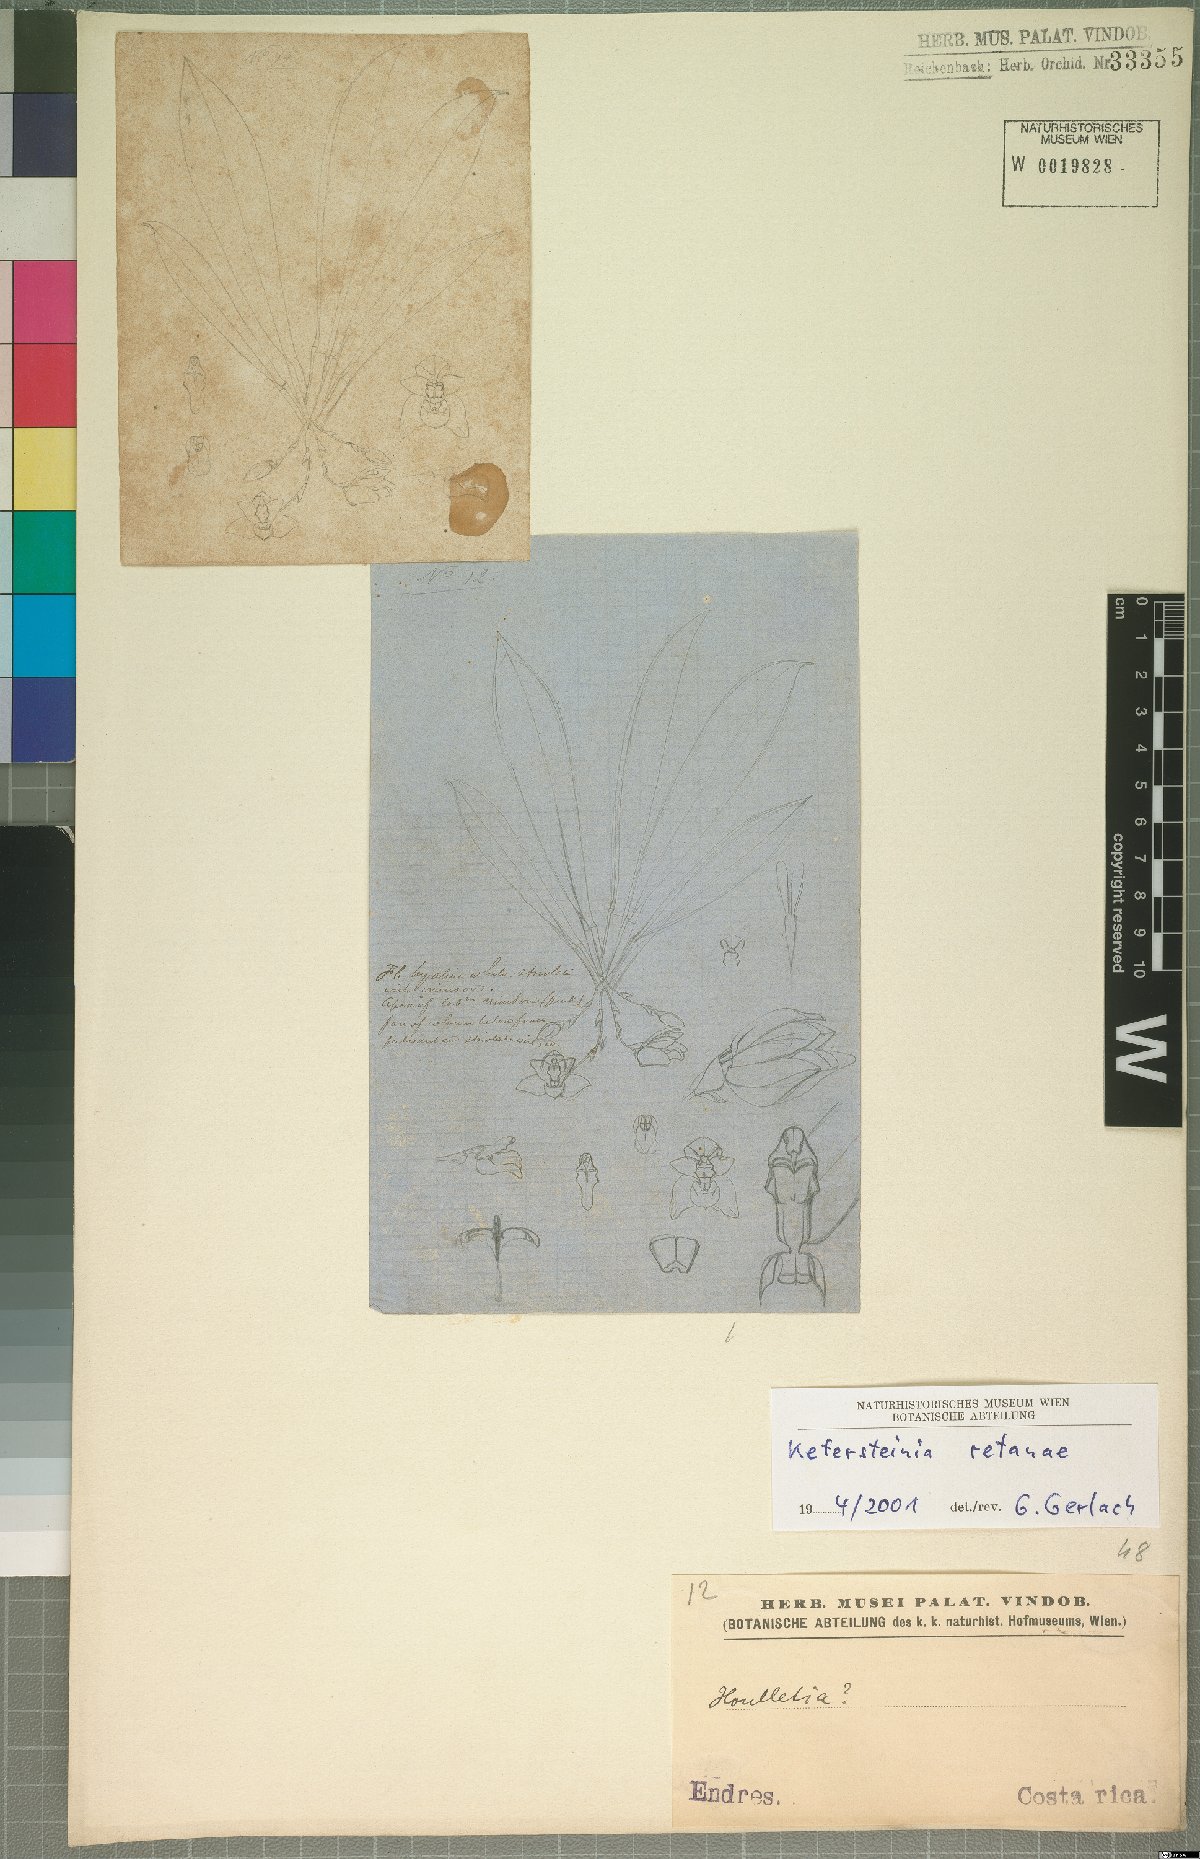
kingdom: Plantae
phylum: Tracheophyta
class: Liliopsida
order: Asparagales
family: Orchidaceae
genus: Kefersteinia
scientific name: Kefersteinia retanae
